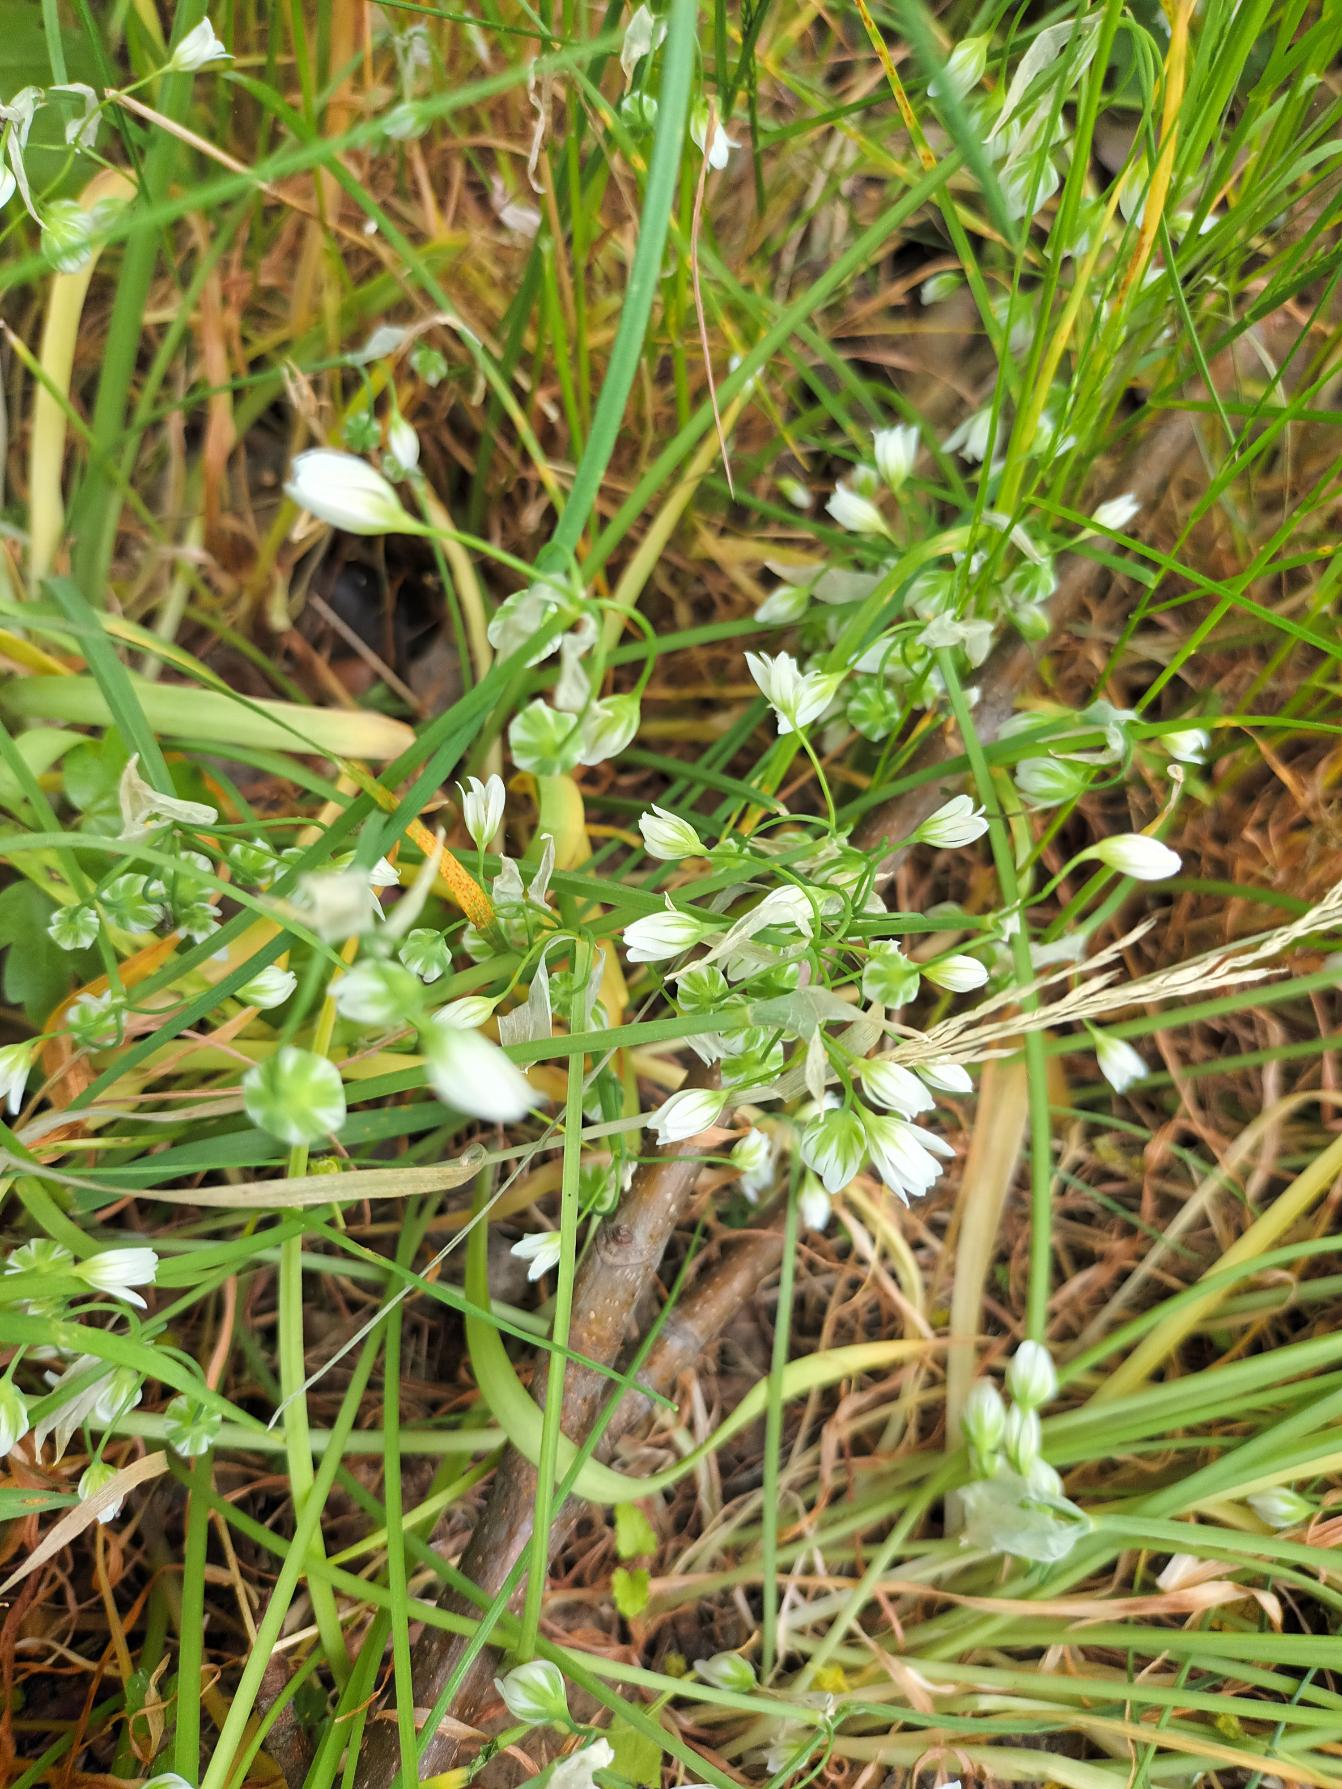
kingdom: Plantae
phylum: Tracheophyta
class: Liliopsida
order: Asparagales
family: Amaryllidaceae
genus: Allium
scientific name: Allium pendulinum
